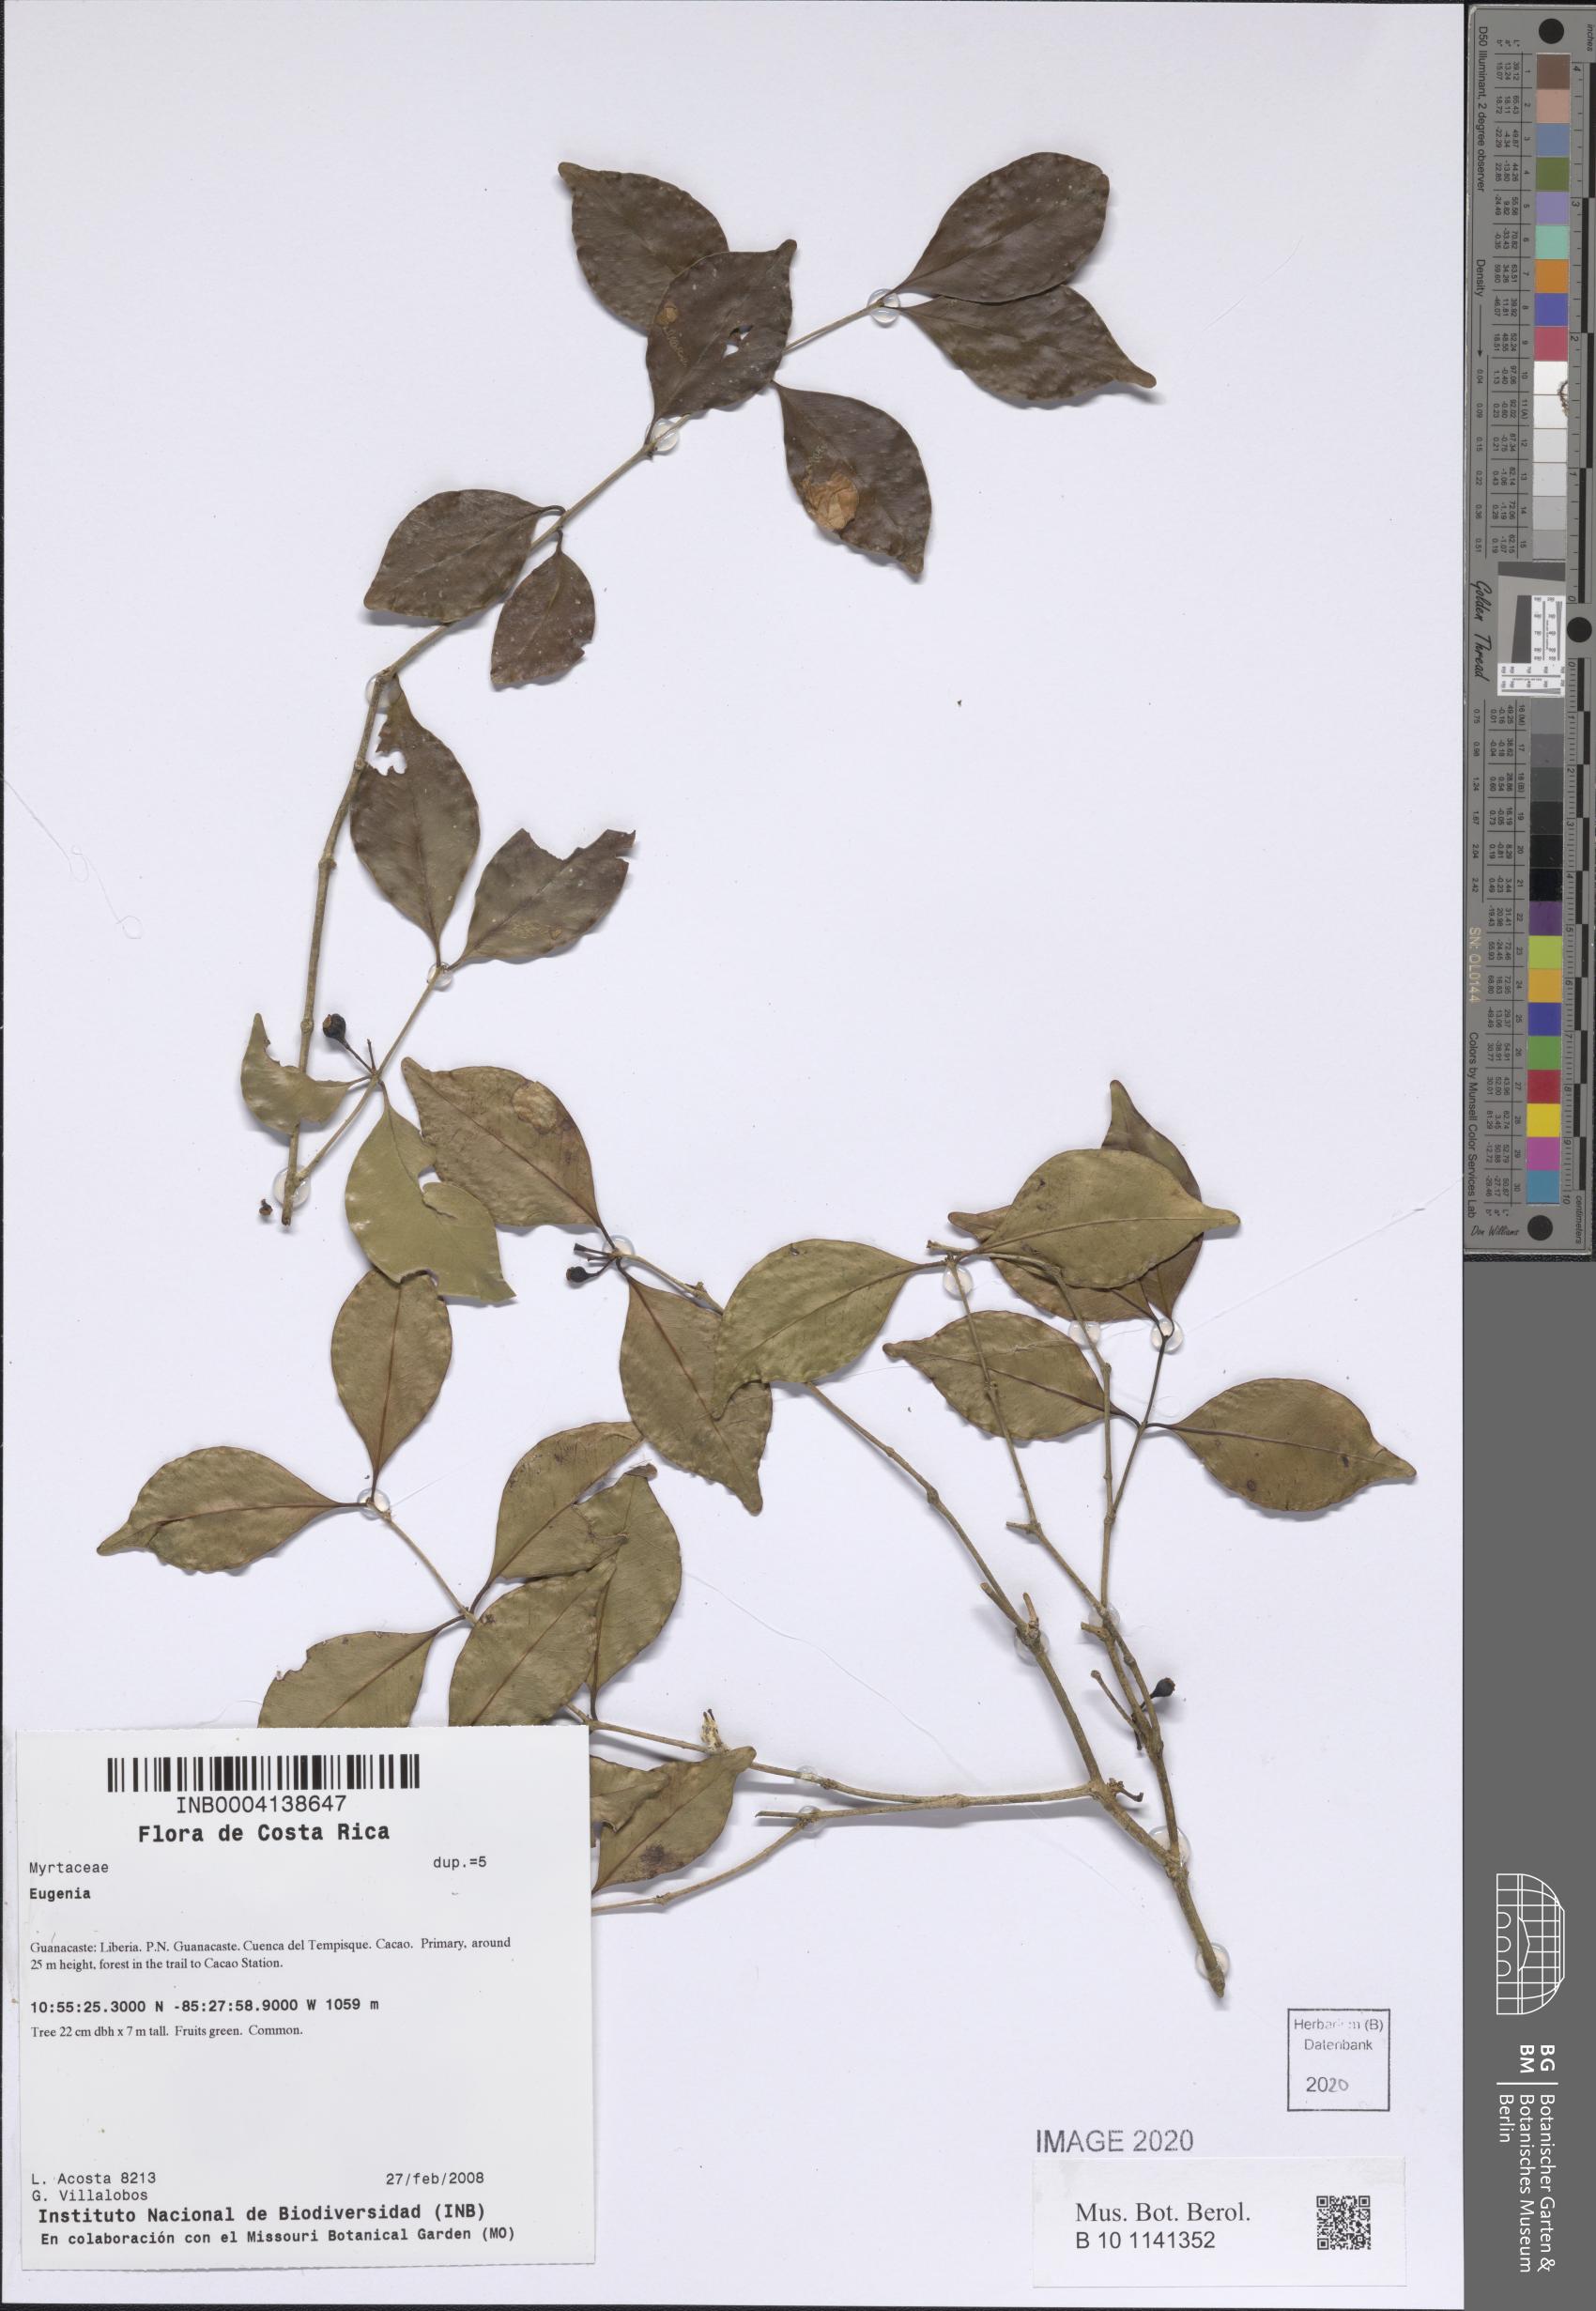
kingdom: Plantae
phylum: Tracheophyta
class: Magnoliopsida
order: Myrtales
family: Myrtaceae
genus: Eugenia
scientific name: Eugenia
